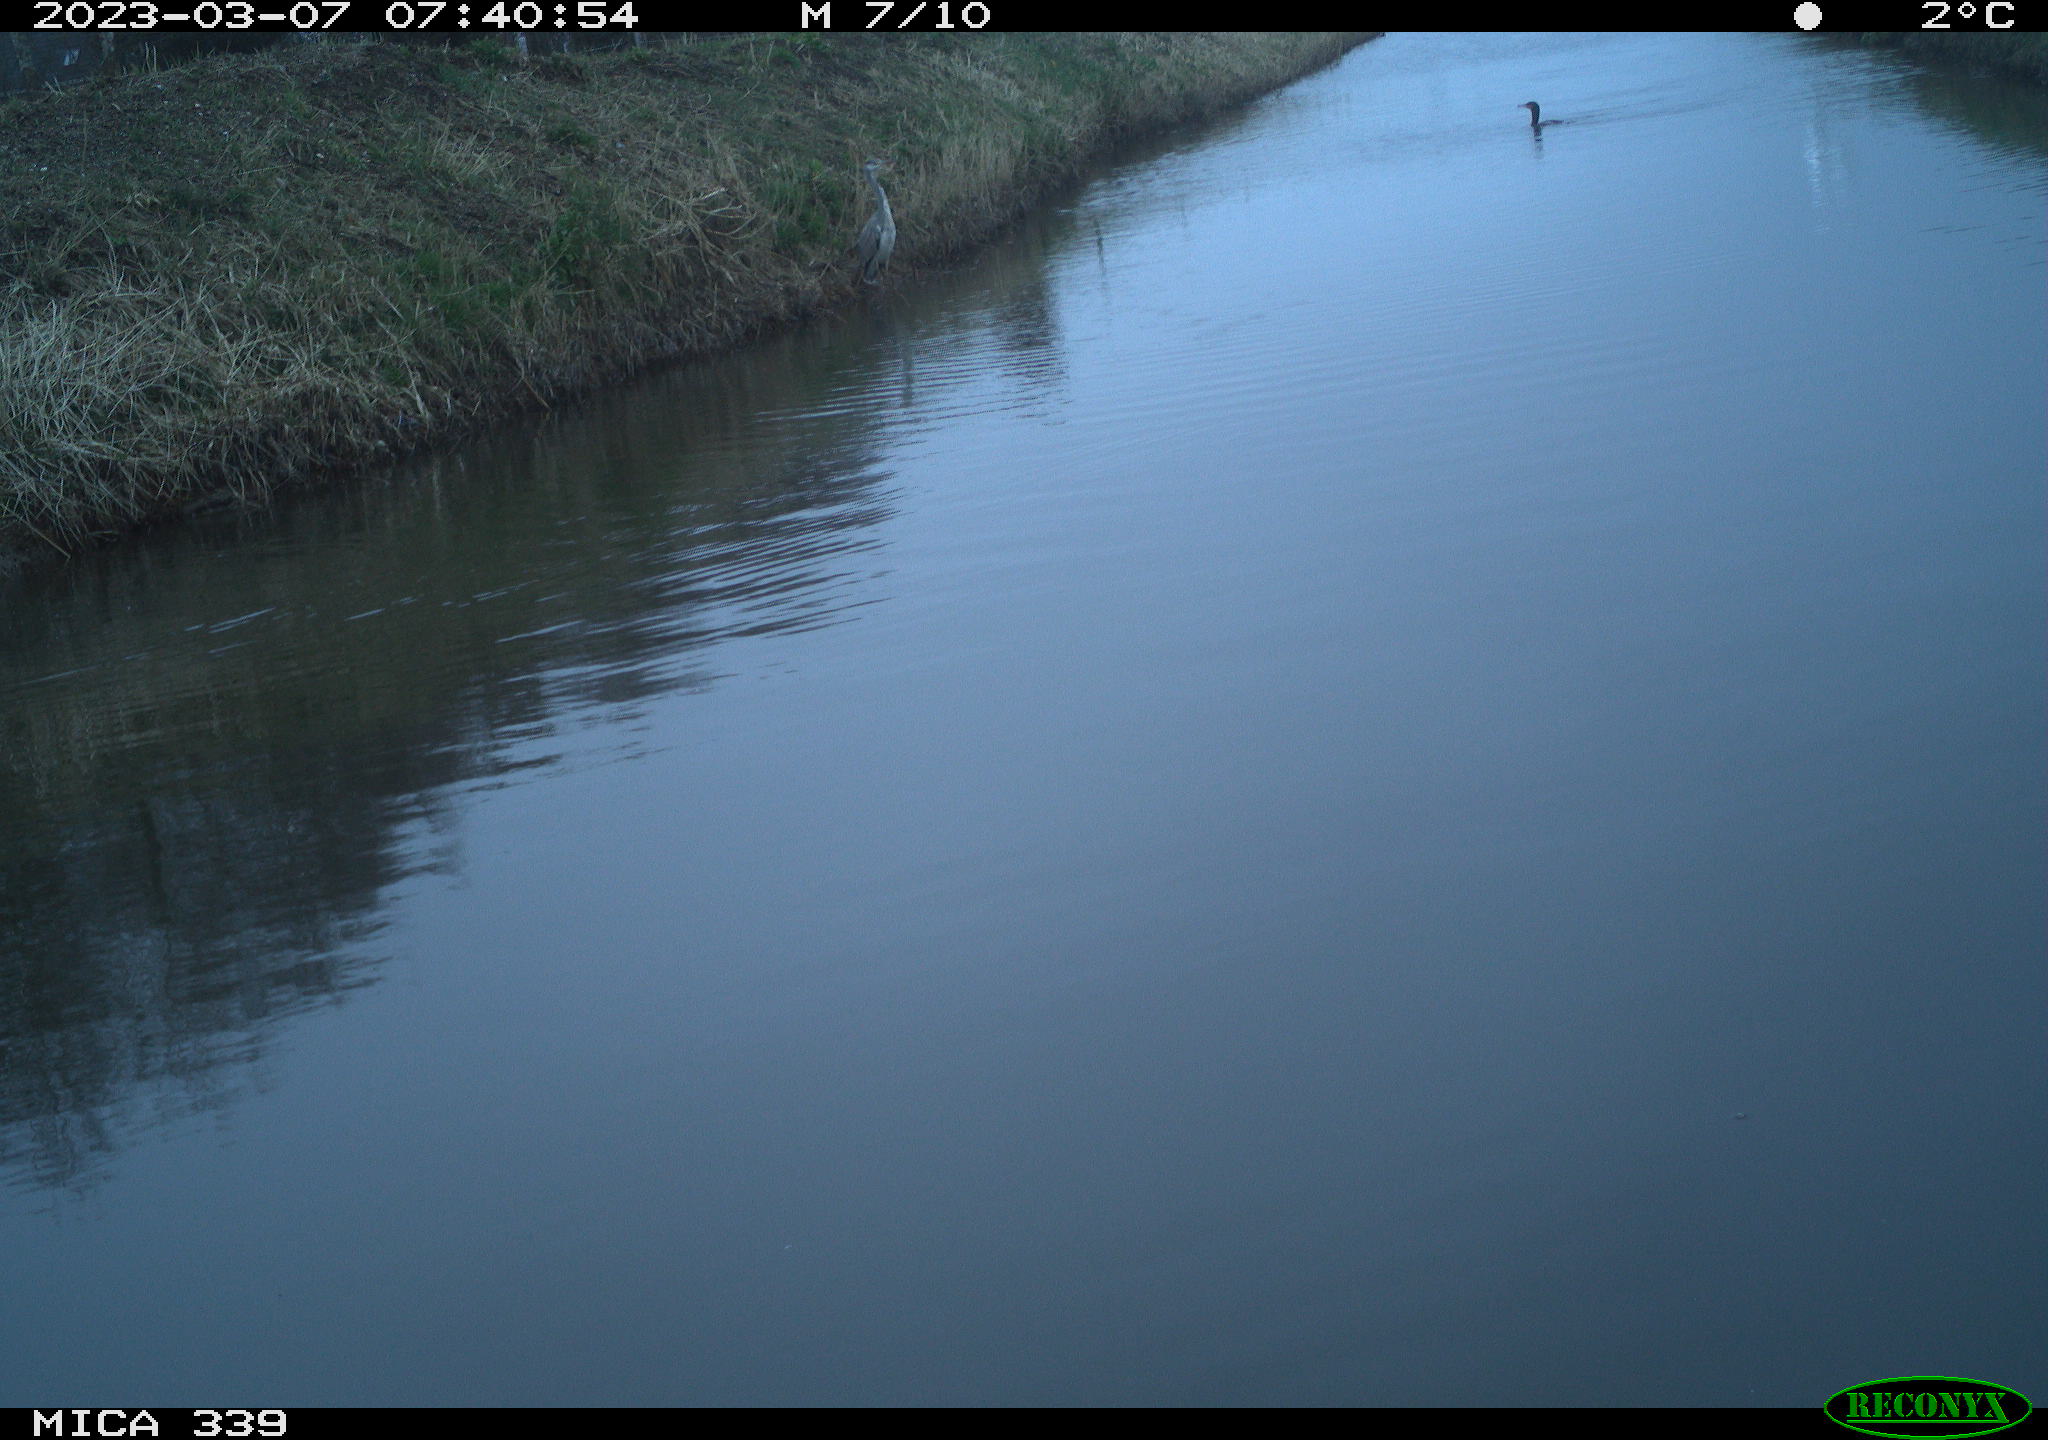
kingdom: Animalia
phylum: Chordata
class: Aves
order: Pelecaniformes
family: Ardeidae
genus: Ardea
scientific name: Ardea alba
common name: Great egret
